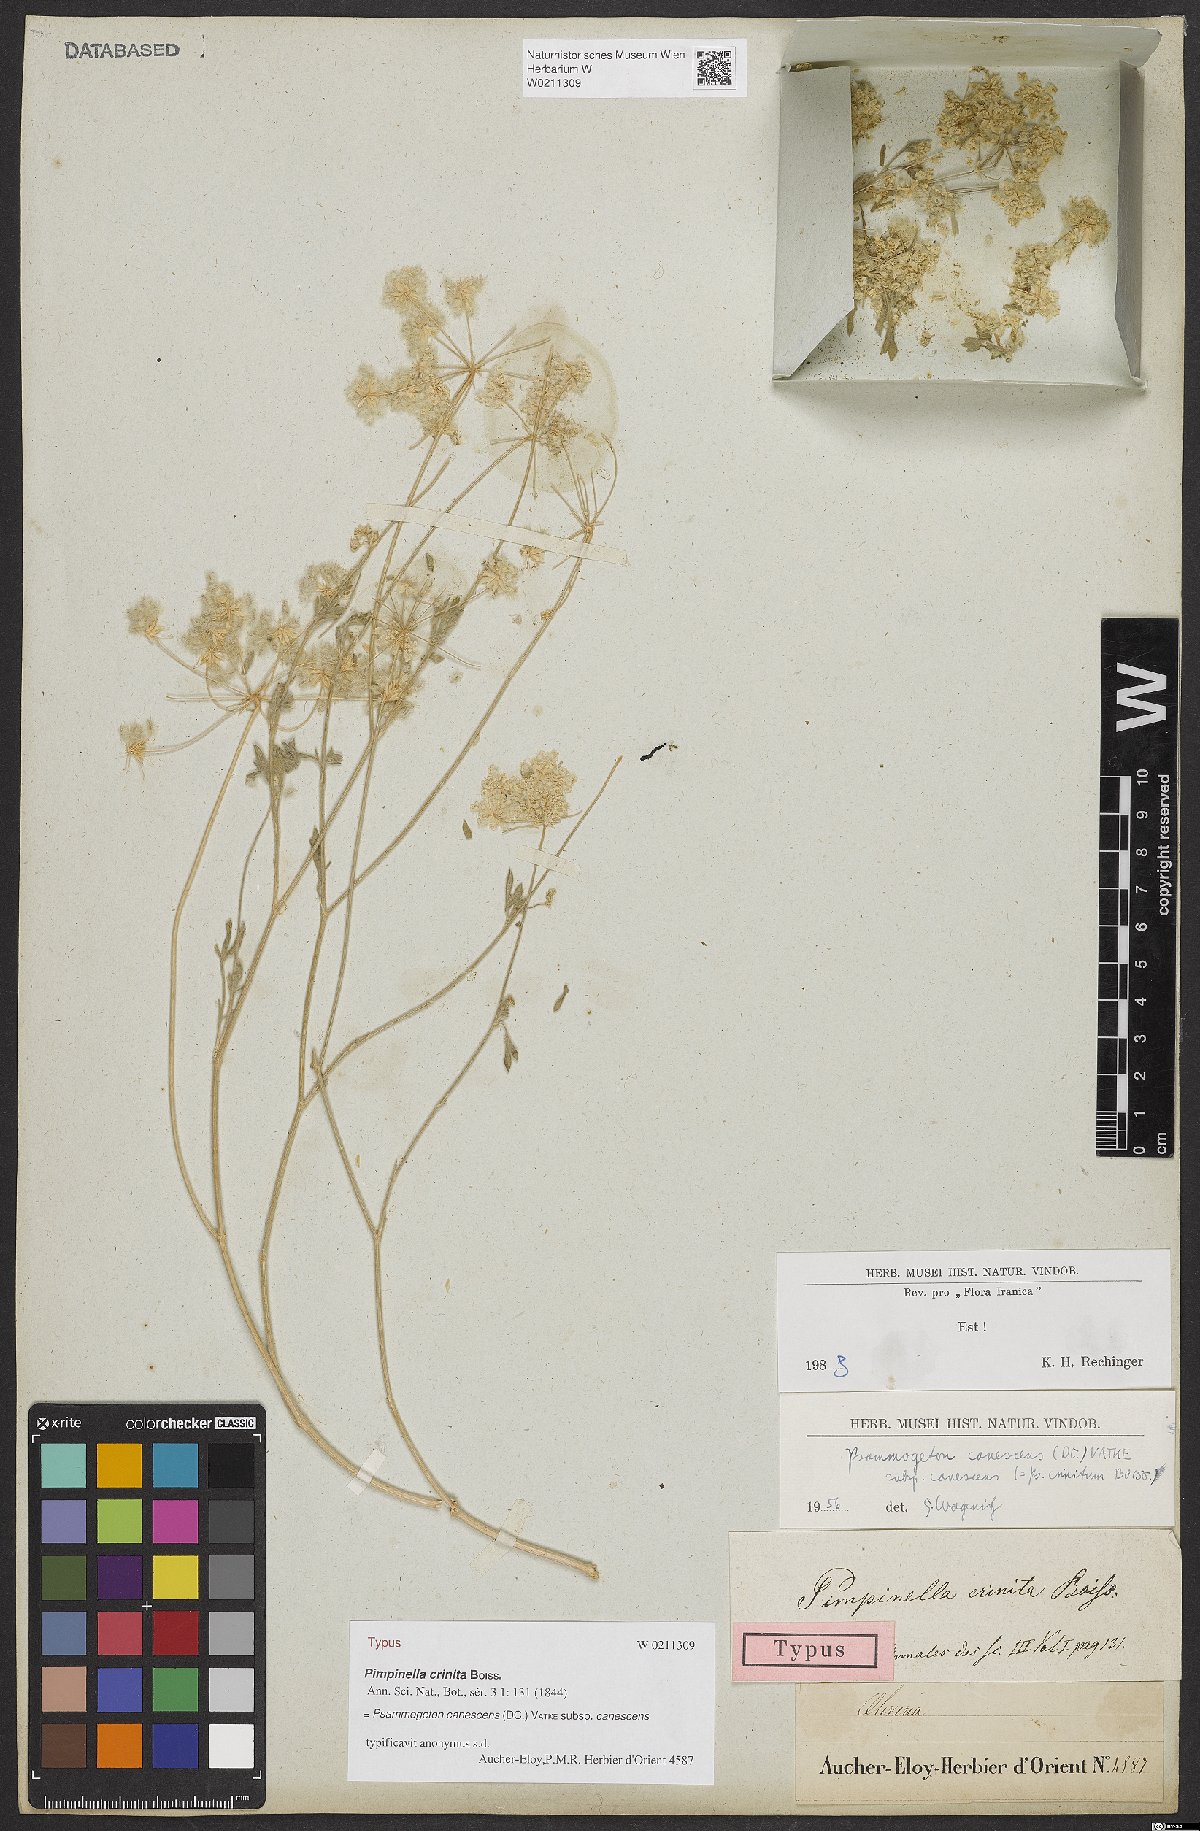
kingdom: Plantae
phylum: Tracheophyta
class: Magnoliopsida
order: Apiales
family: Apiaceae
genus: Psammogeton
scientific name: Psammogeton canescens
